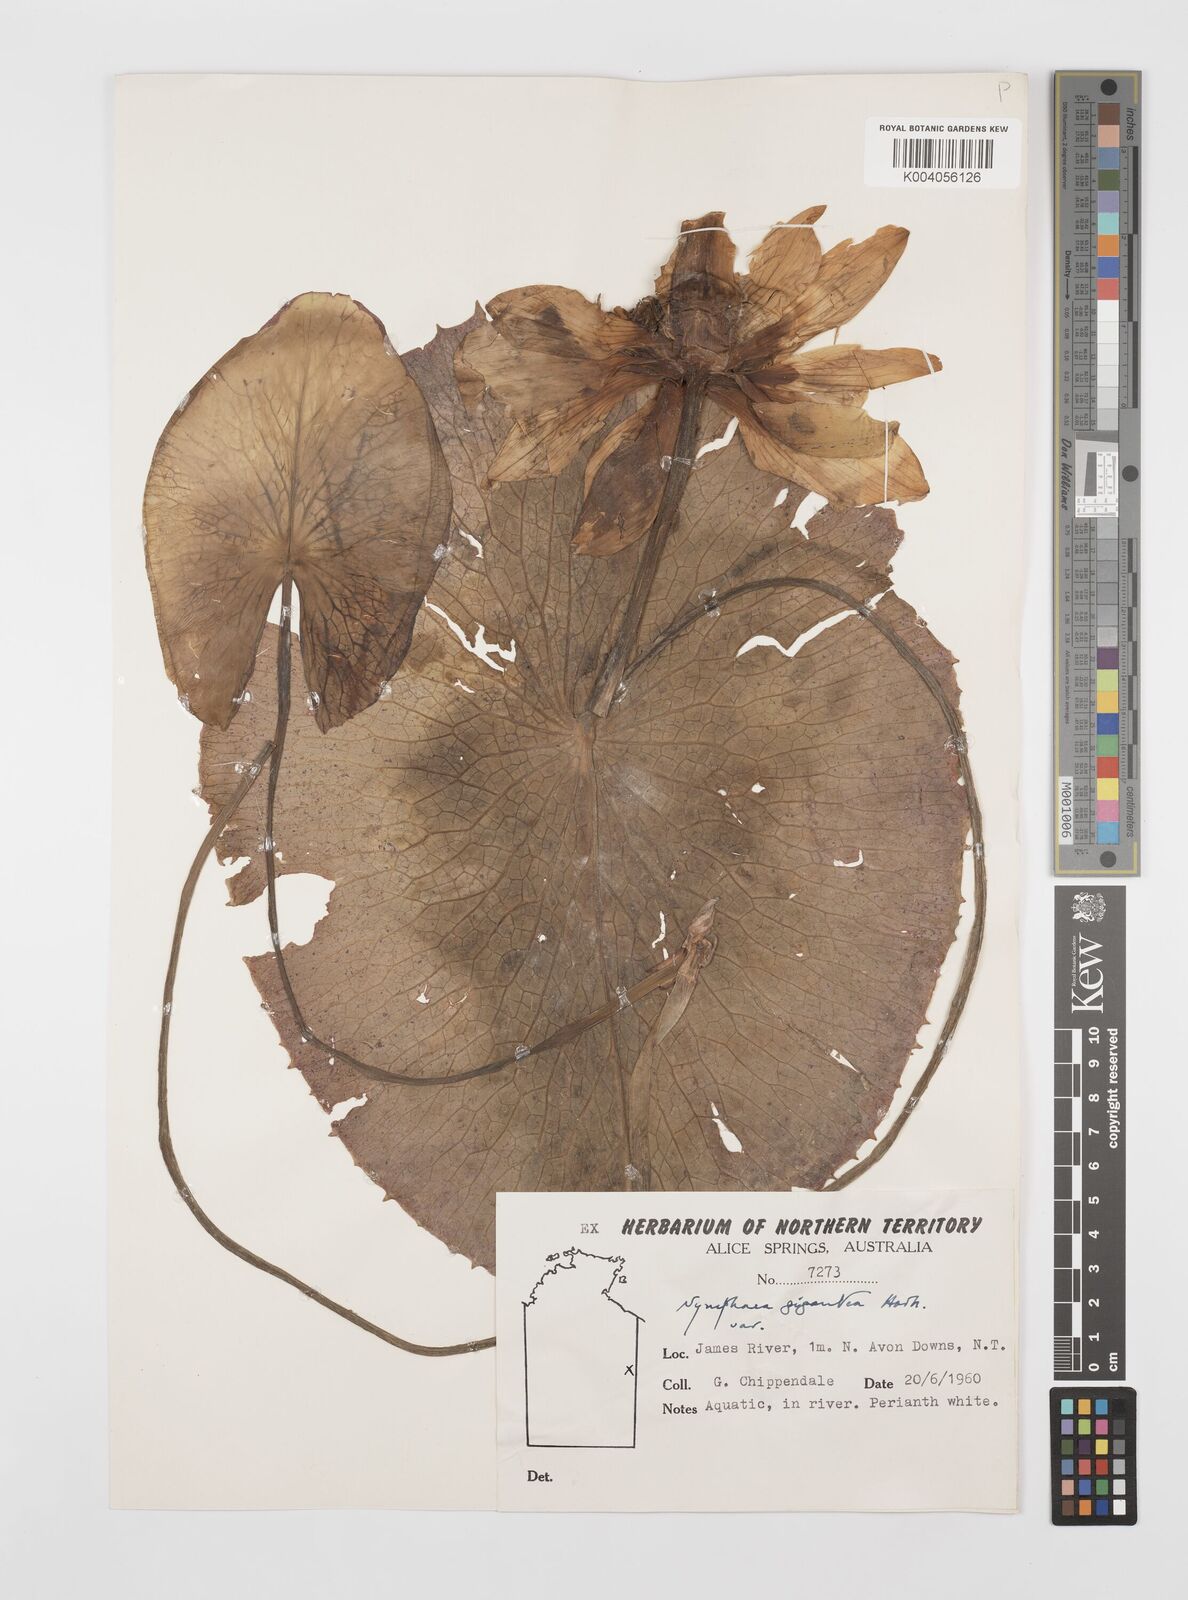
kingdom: Plantae
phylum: Tracheophyta
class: Magnoliopsida
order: Nymphaeales
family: Nymphaeaceae
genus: Nymphaea
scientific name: Nymphaea gigantea
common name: Giant water-lily
